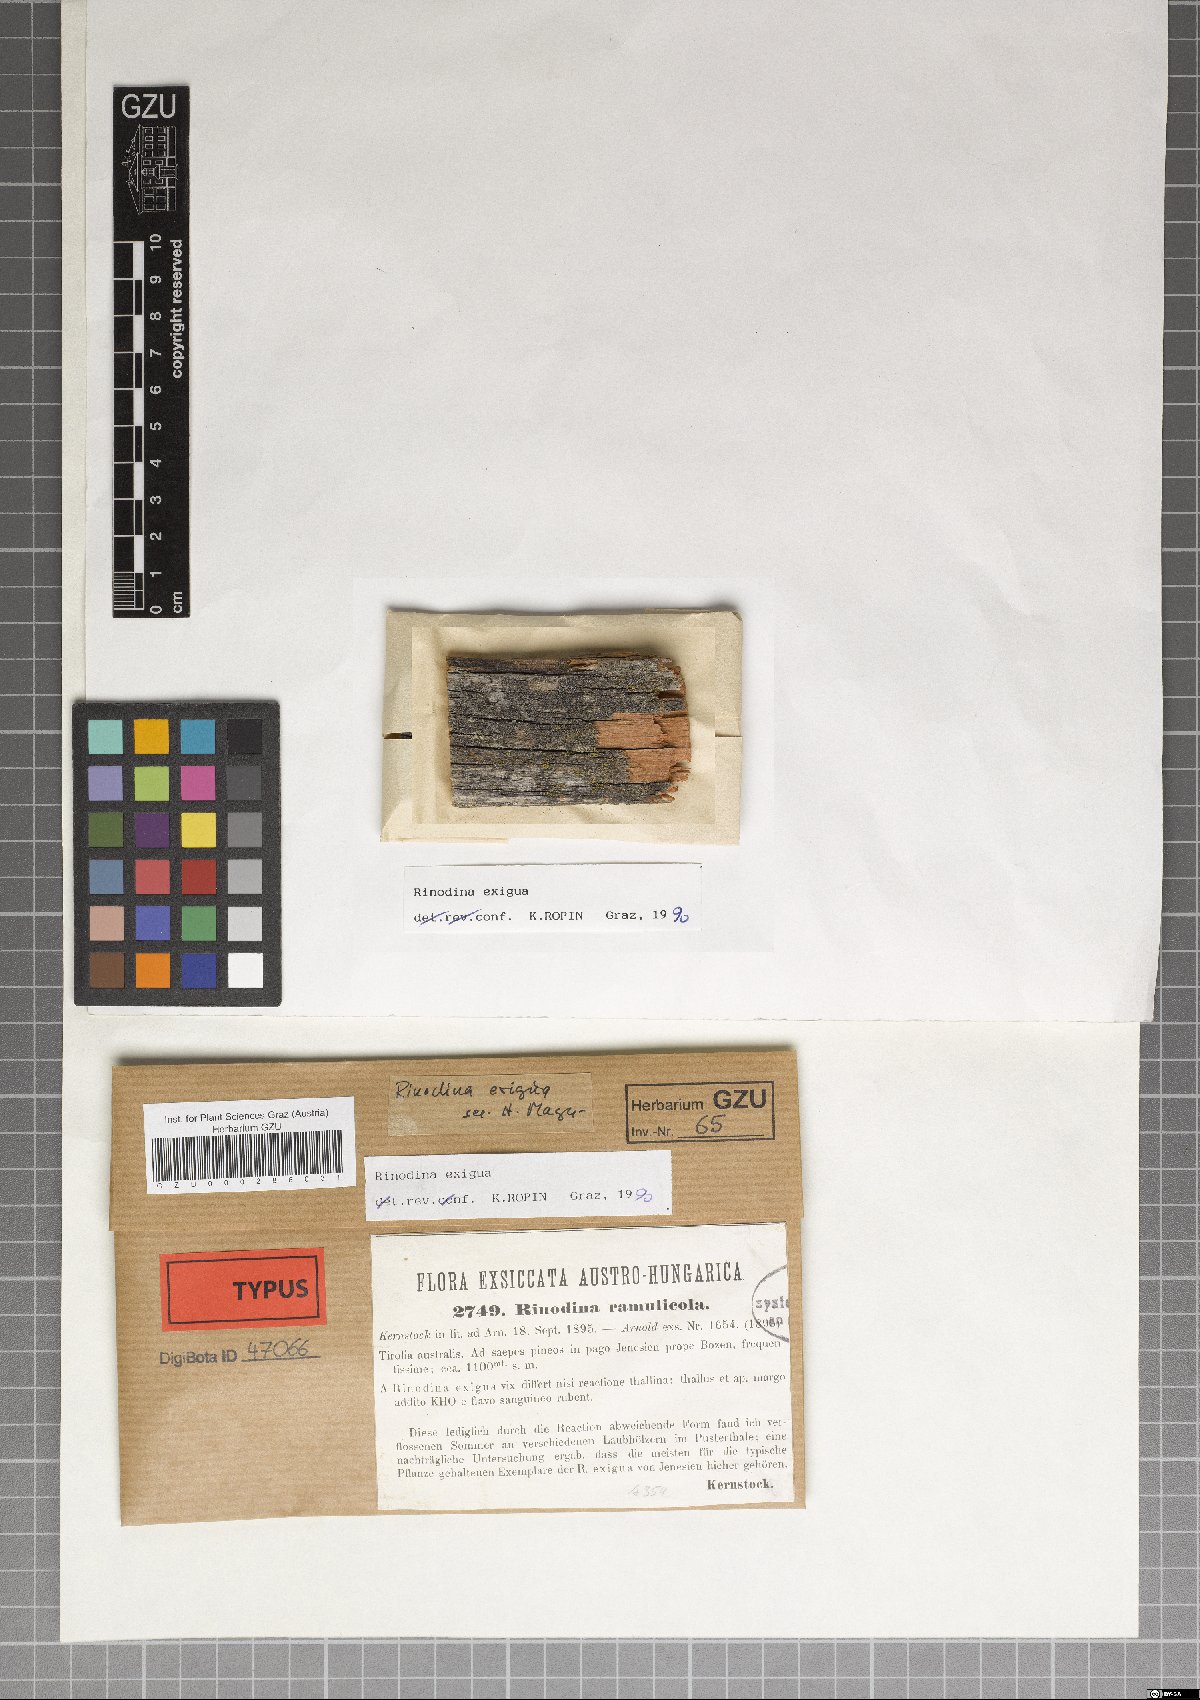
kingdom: Fungi
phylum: Ascomycota
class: Lecanoromycetes
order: Caliciales
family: Physciaceae
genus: Rinodina
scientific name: Rinodina glauca
